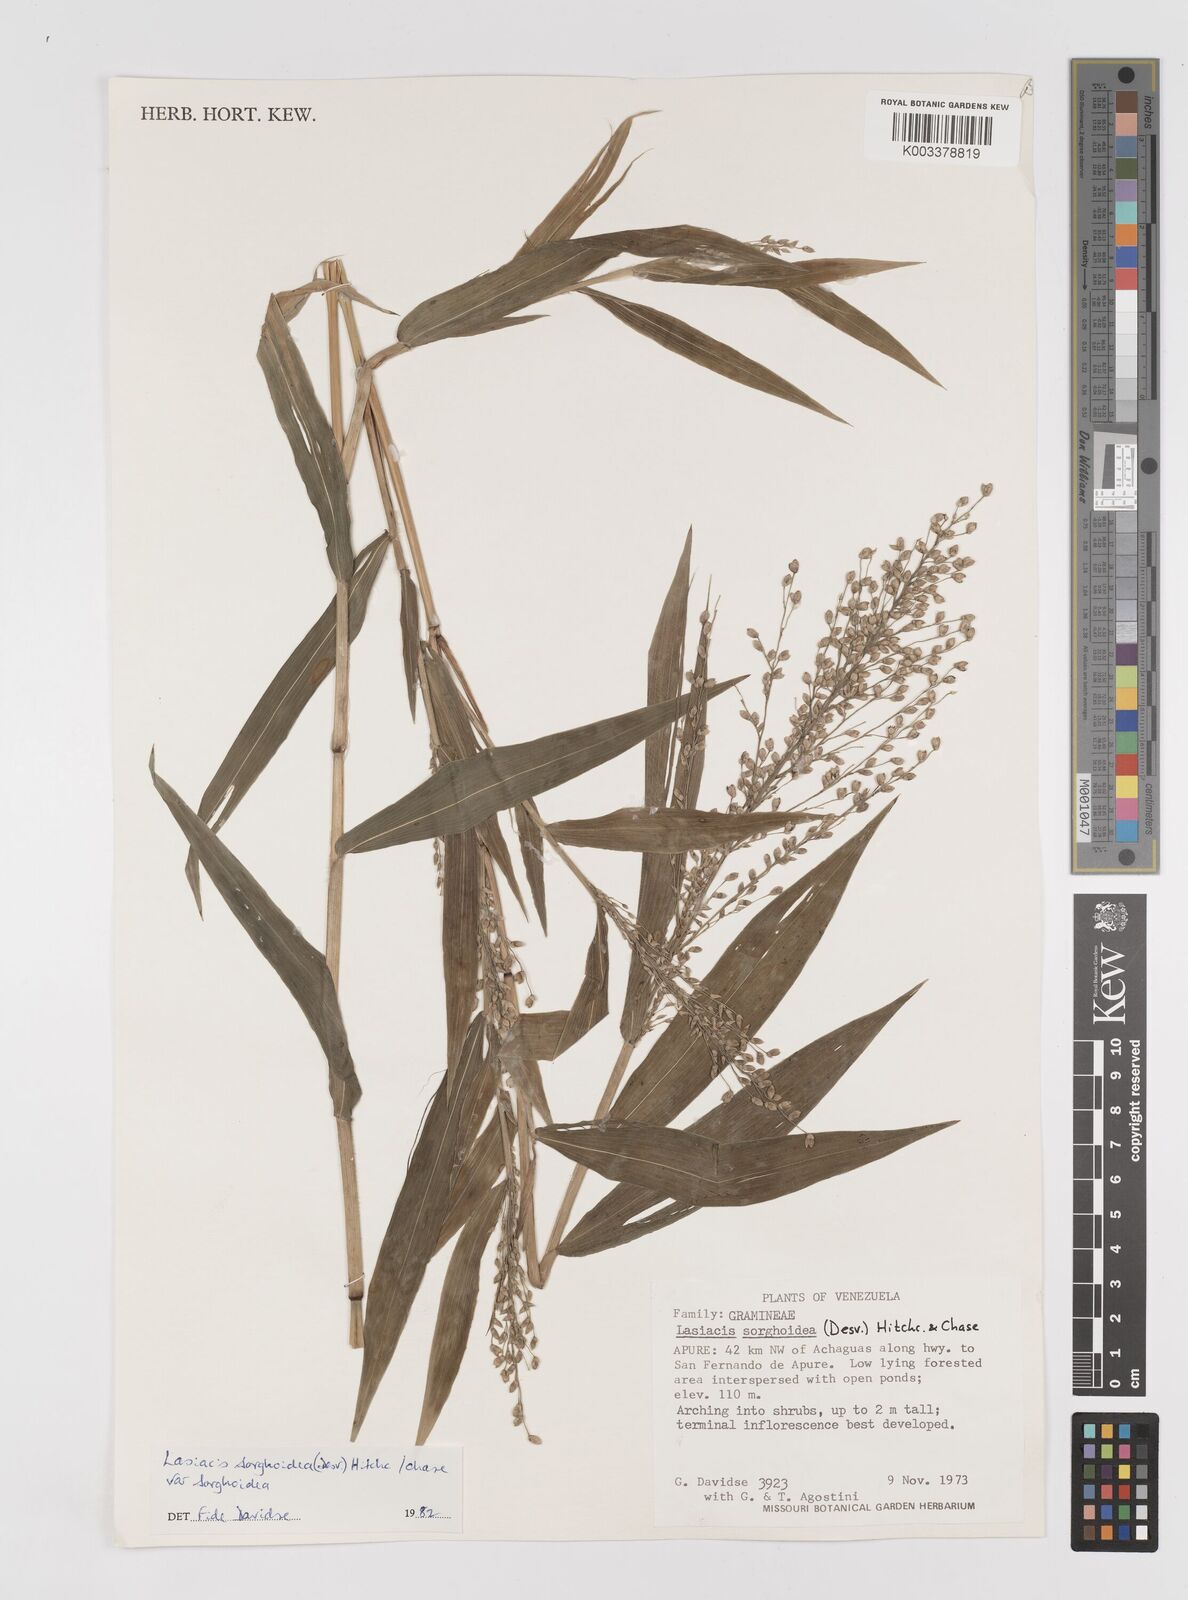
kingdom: Plantae
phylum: Tracheophyta
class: Liliopsida
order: Poales
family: Poaceae
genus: Lasiacis
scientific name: Lasiacis maculata
